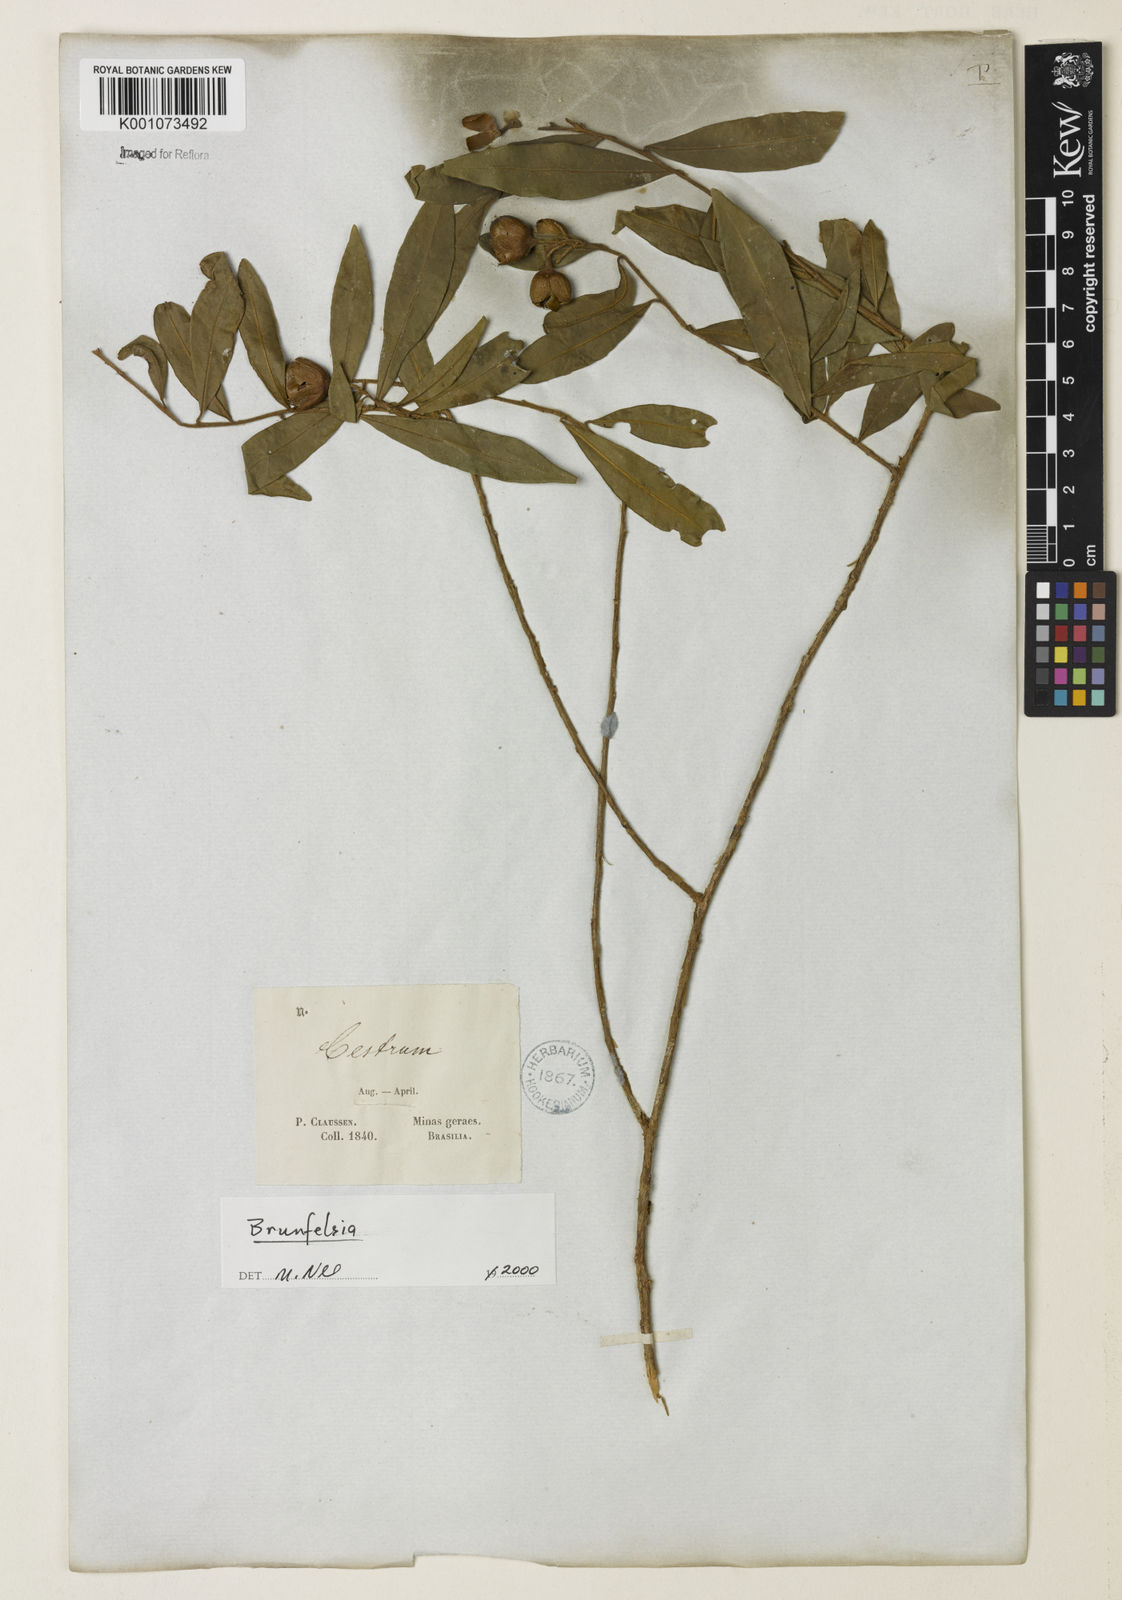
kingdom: Plantae
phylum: Tracheophyta
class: Magnoliopsida
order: Solanales
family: Solanaceae
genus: Brunfelsia
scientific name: Brunfelsia
